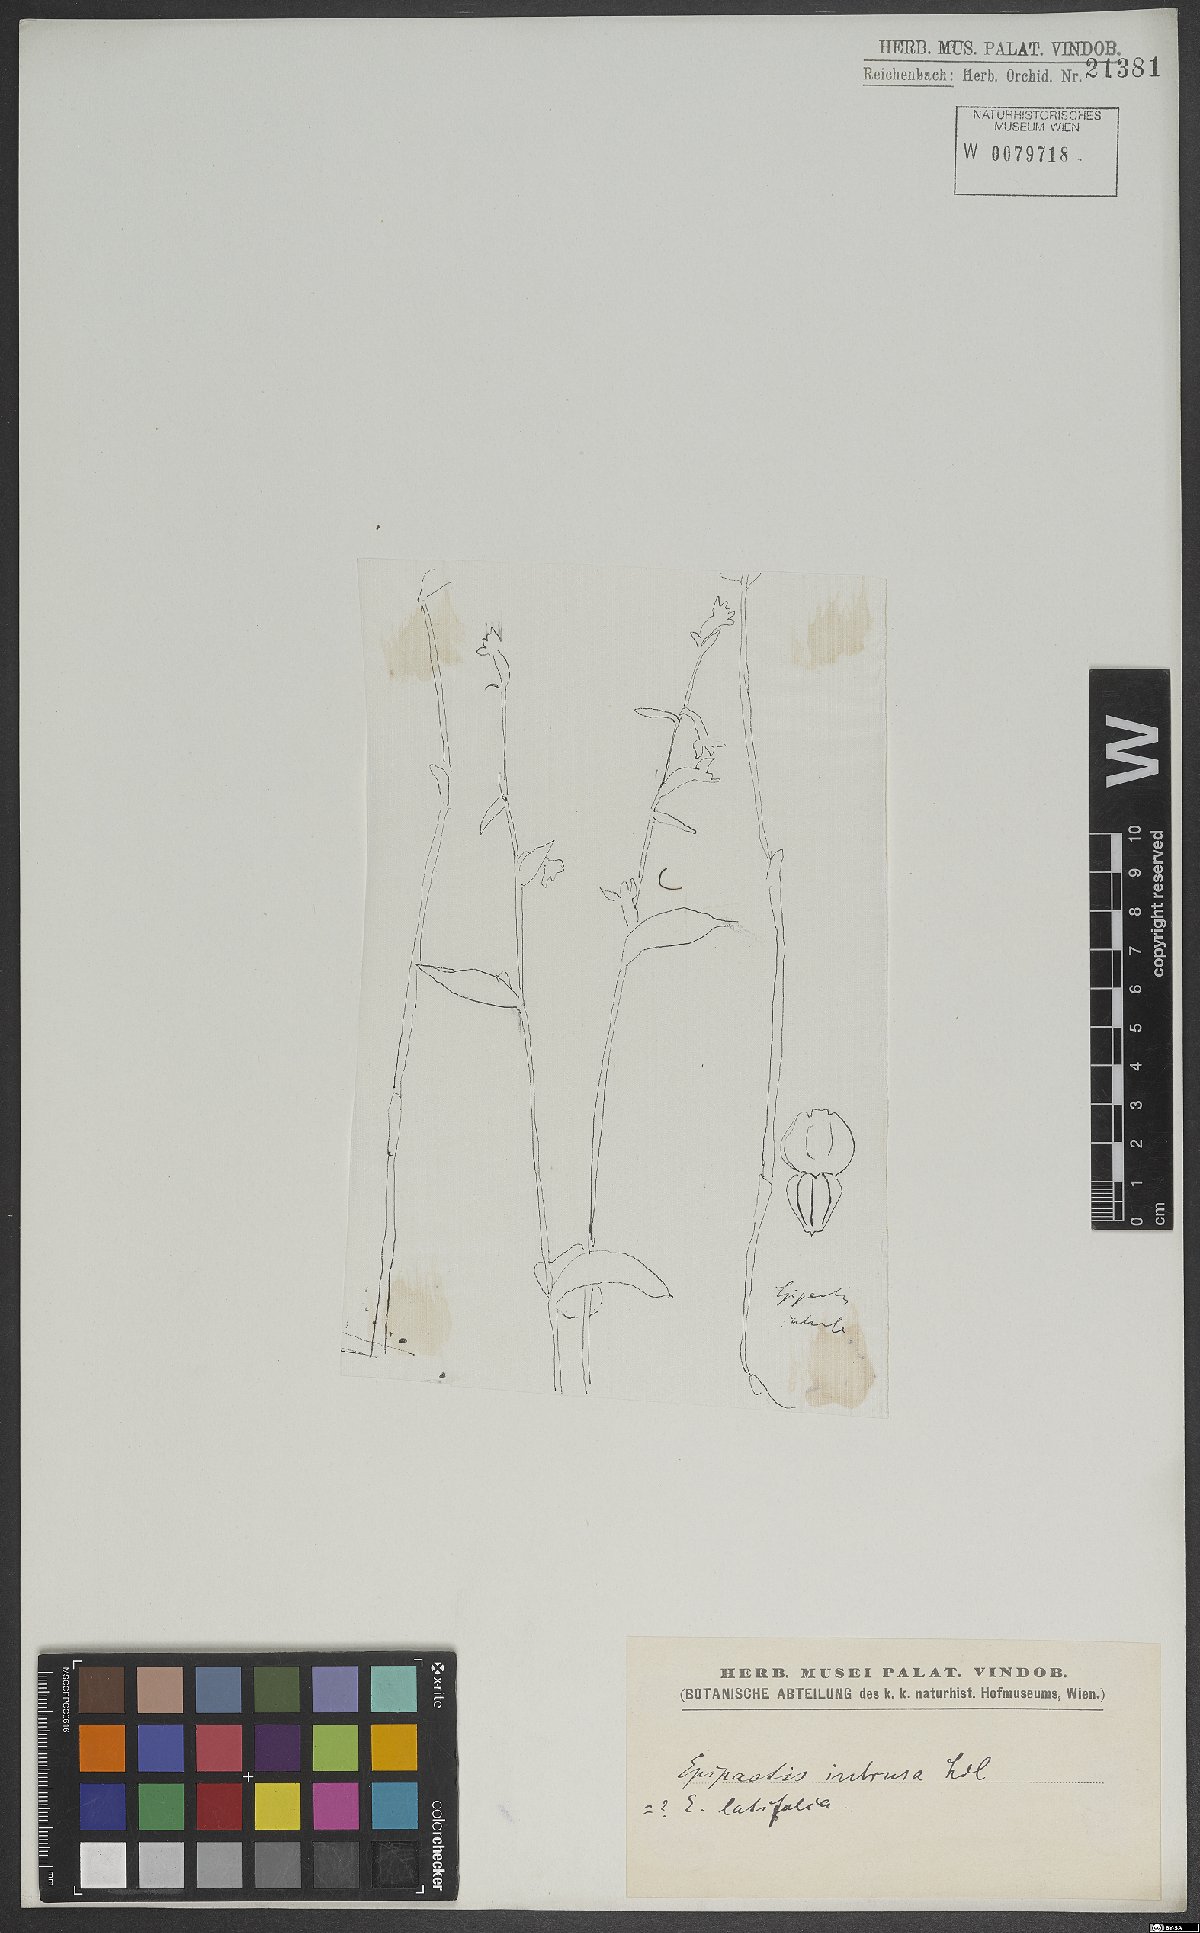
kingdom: Plantae
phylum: Tracheophyta
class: Liliopsida
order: Asparagales
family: Orchidaceae
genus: Epipactis
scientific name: Epipactis helleborine
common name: Broad-leaved helleborine
